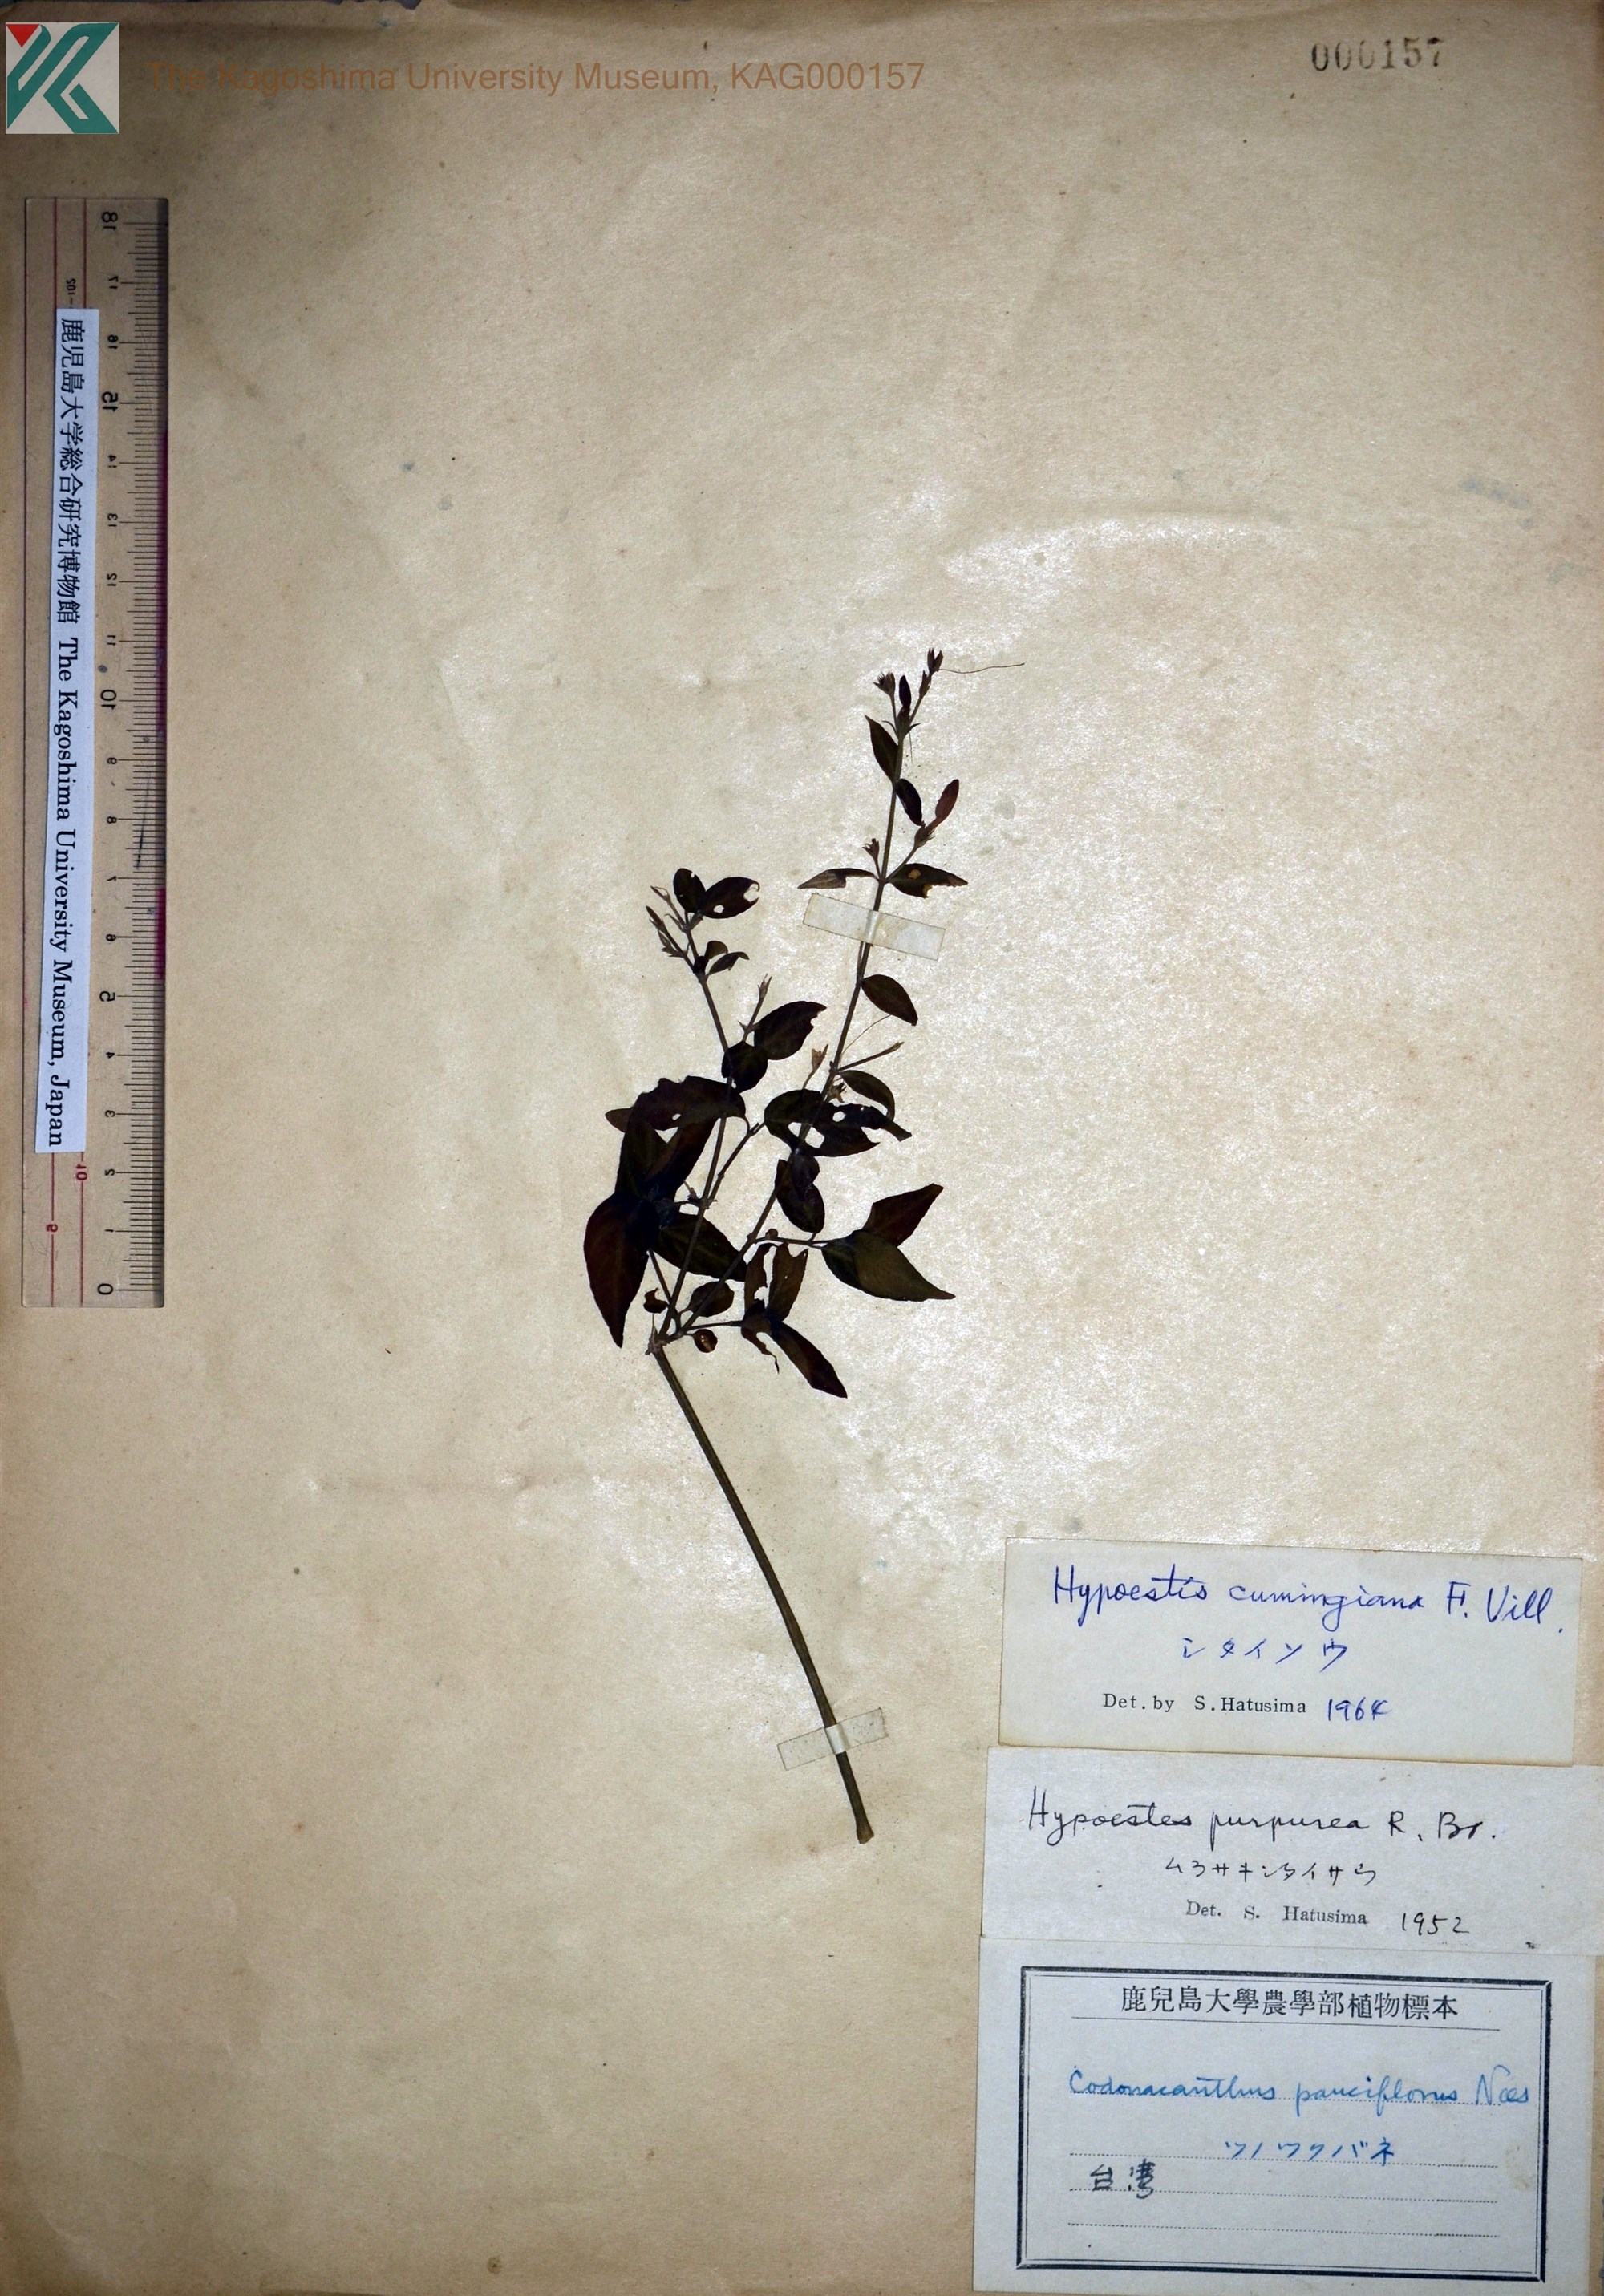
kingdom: Plantae
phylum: Tracheophyta
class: Magnoliopsida
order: Lamiales
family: Acanthaceae
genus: Hypoestes
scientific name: Hypoestes cumingiana
